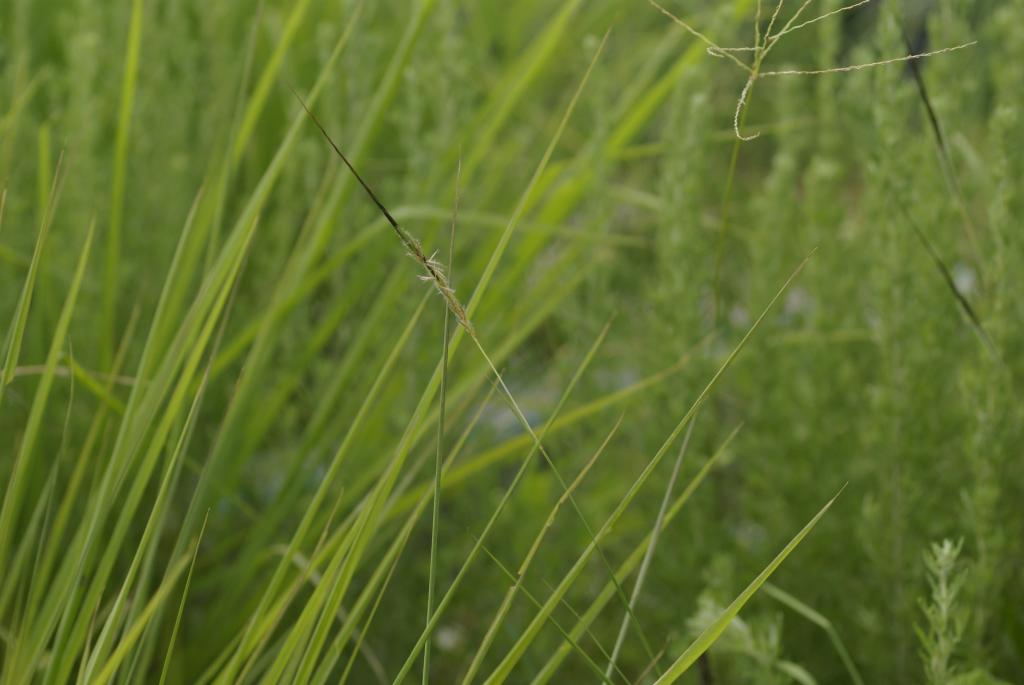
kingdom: Plantae
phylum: Tracheophyta
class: Liliopsida
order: Poales
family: Poaceae
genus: Heteropogon
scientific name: Heteropogon contortus
